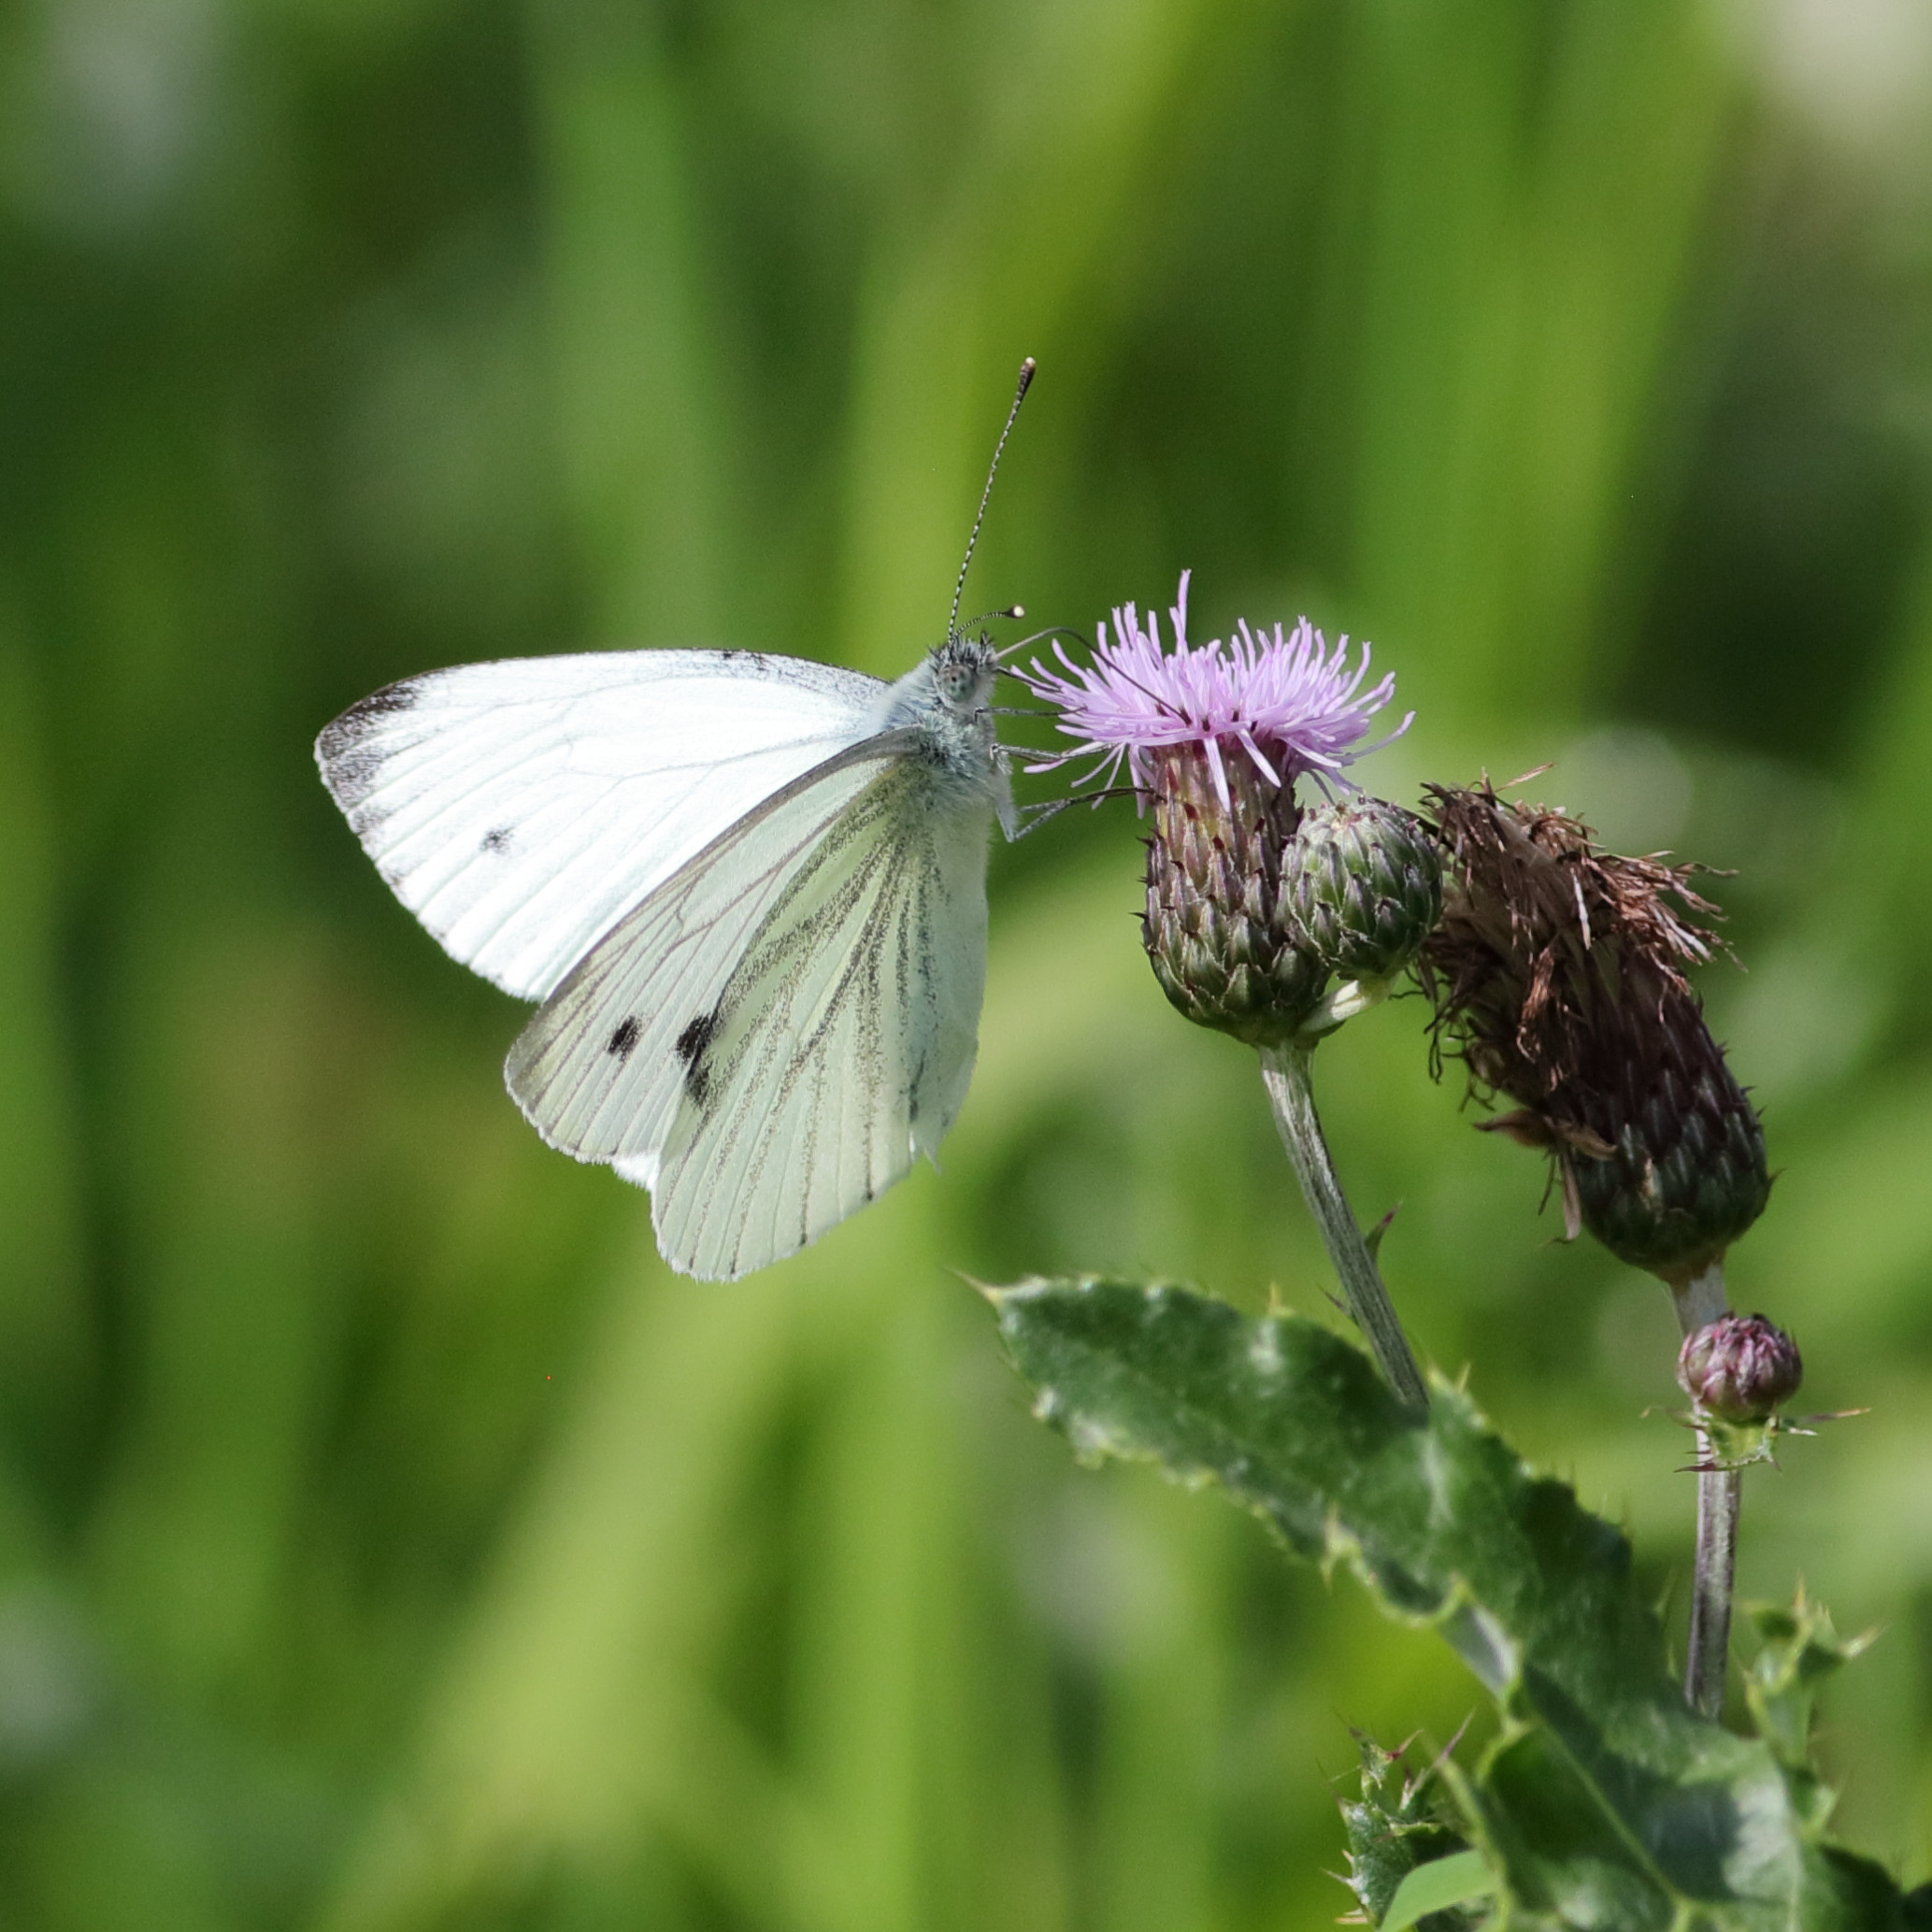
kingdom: Animalia
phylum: Arthropoda
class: Insecta
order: Lepidoptera
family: Pieridae
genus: Pieris
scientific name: Pieris napi
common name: Grønåret kålsommerfugl
